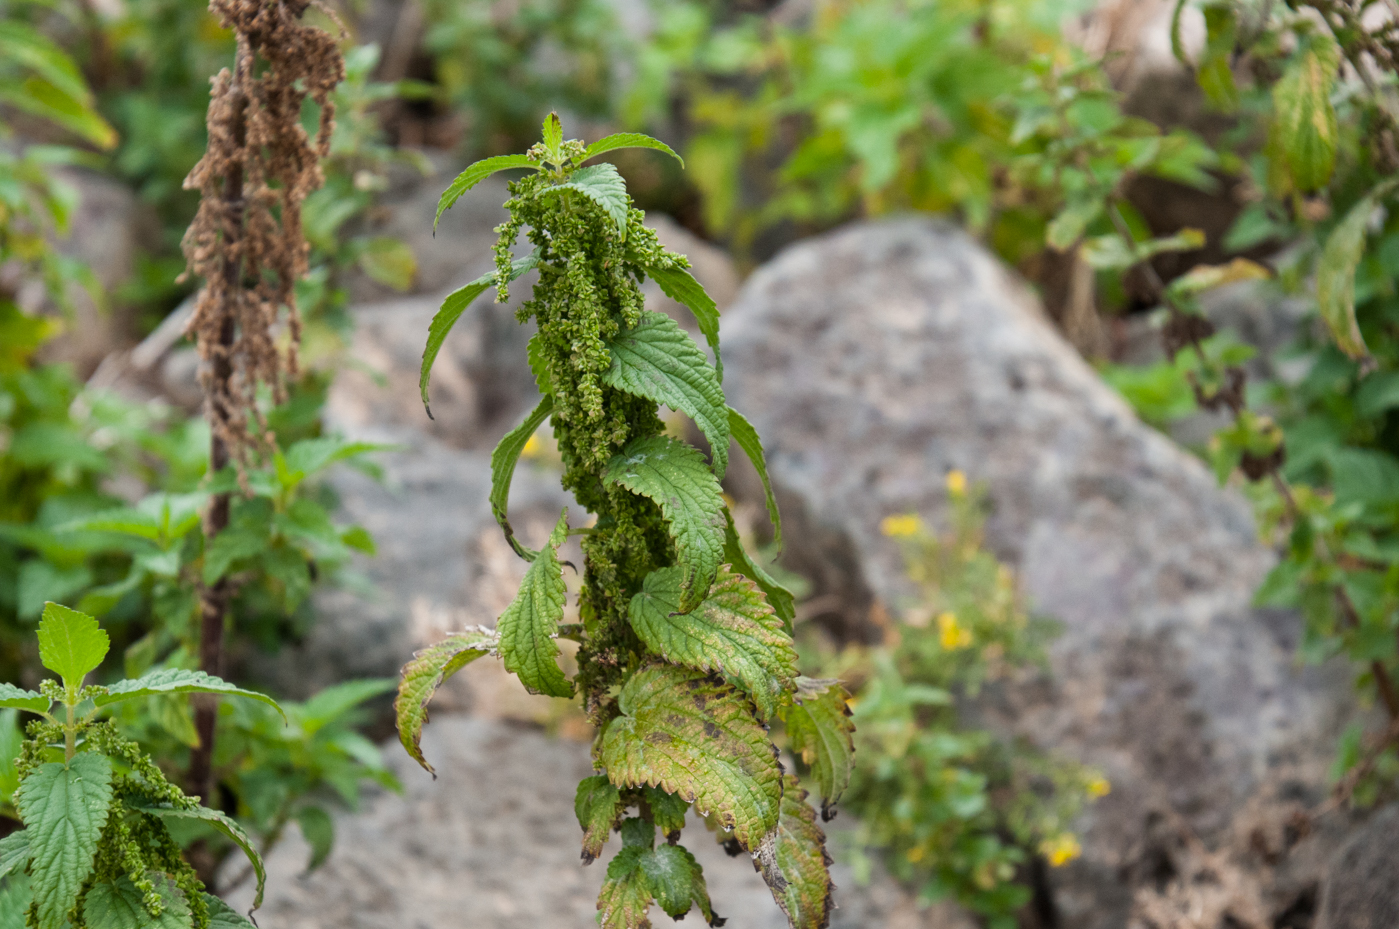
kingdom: Plantae
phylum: Tracheophyta
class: Magnoliopsida
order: Rosales
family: Urticaceae
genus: Urtica
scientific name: Urtica kioviensis
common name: Kievan nettle
